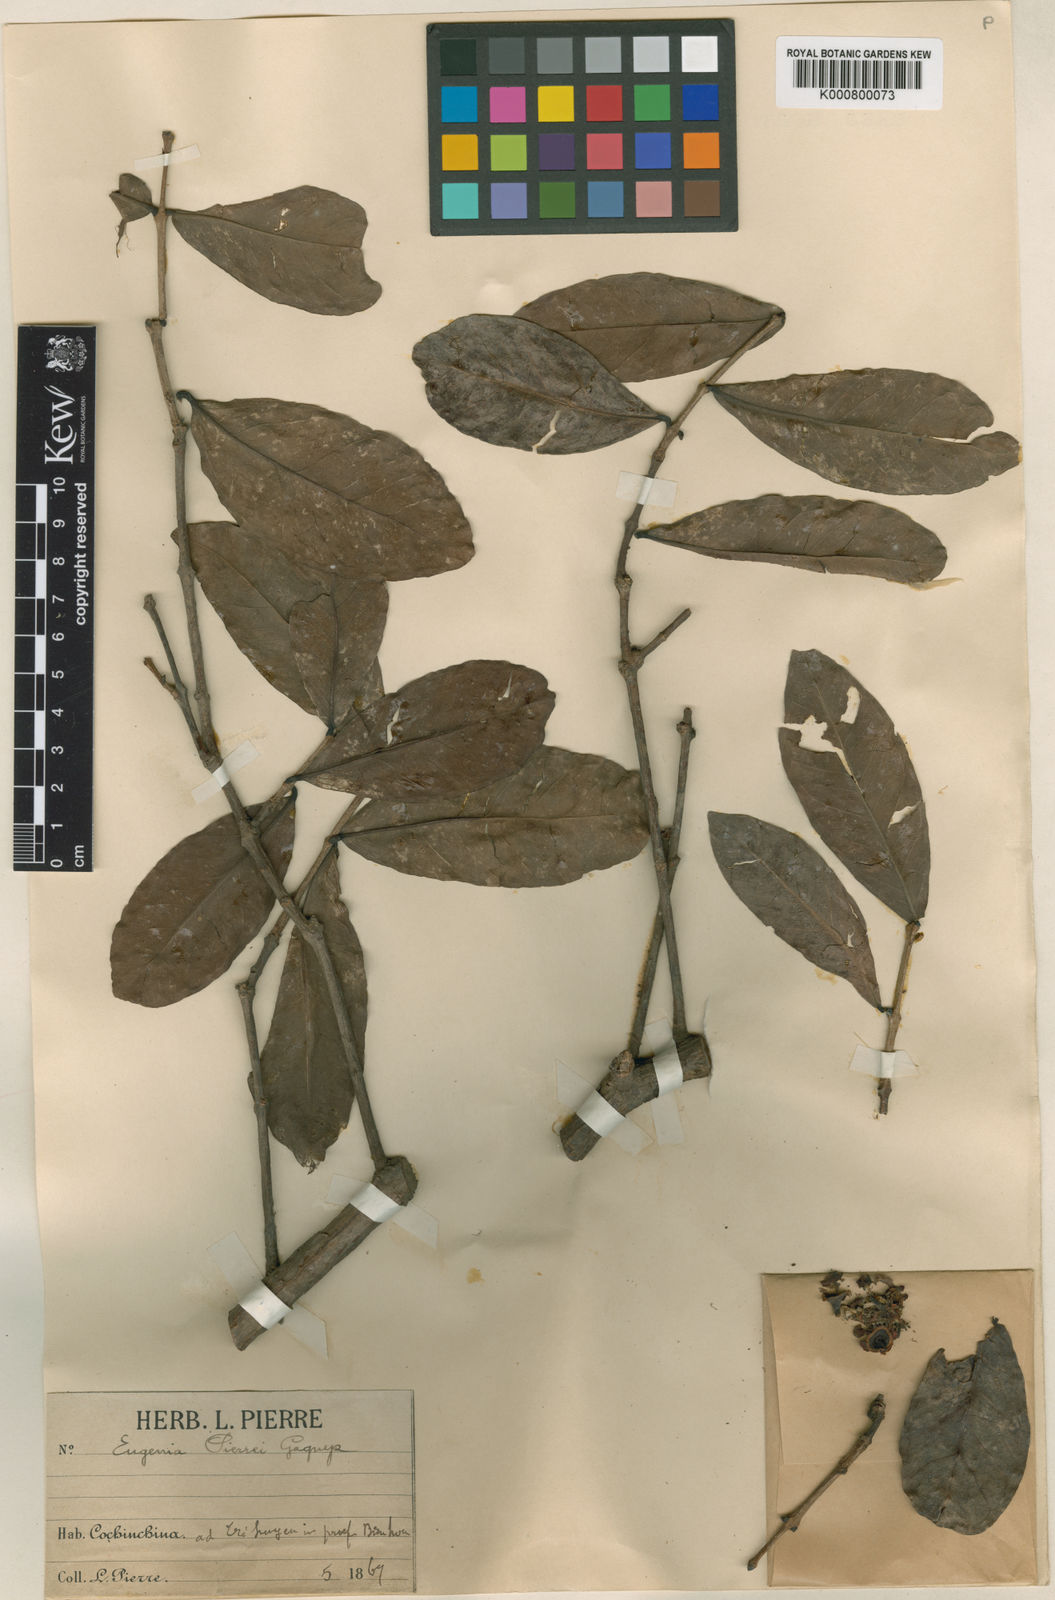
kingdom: Plantae
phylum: Tracheophyta
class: Magnoliopsida
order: Myrtales
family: Myrtaceae
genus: Syzygium
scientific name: Syzygium pierrei
